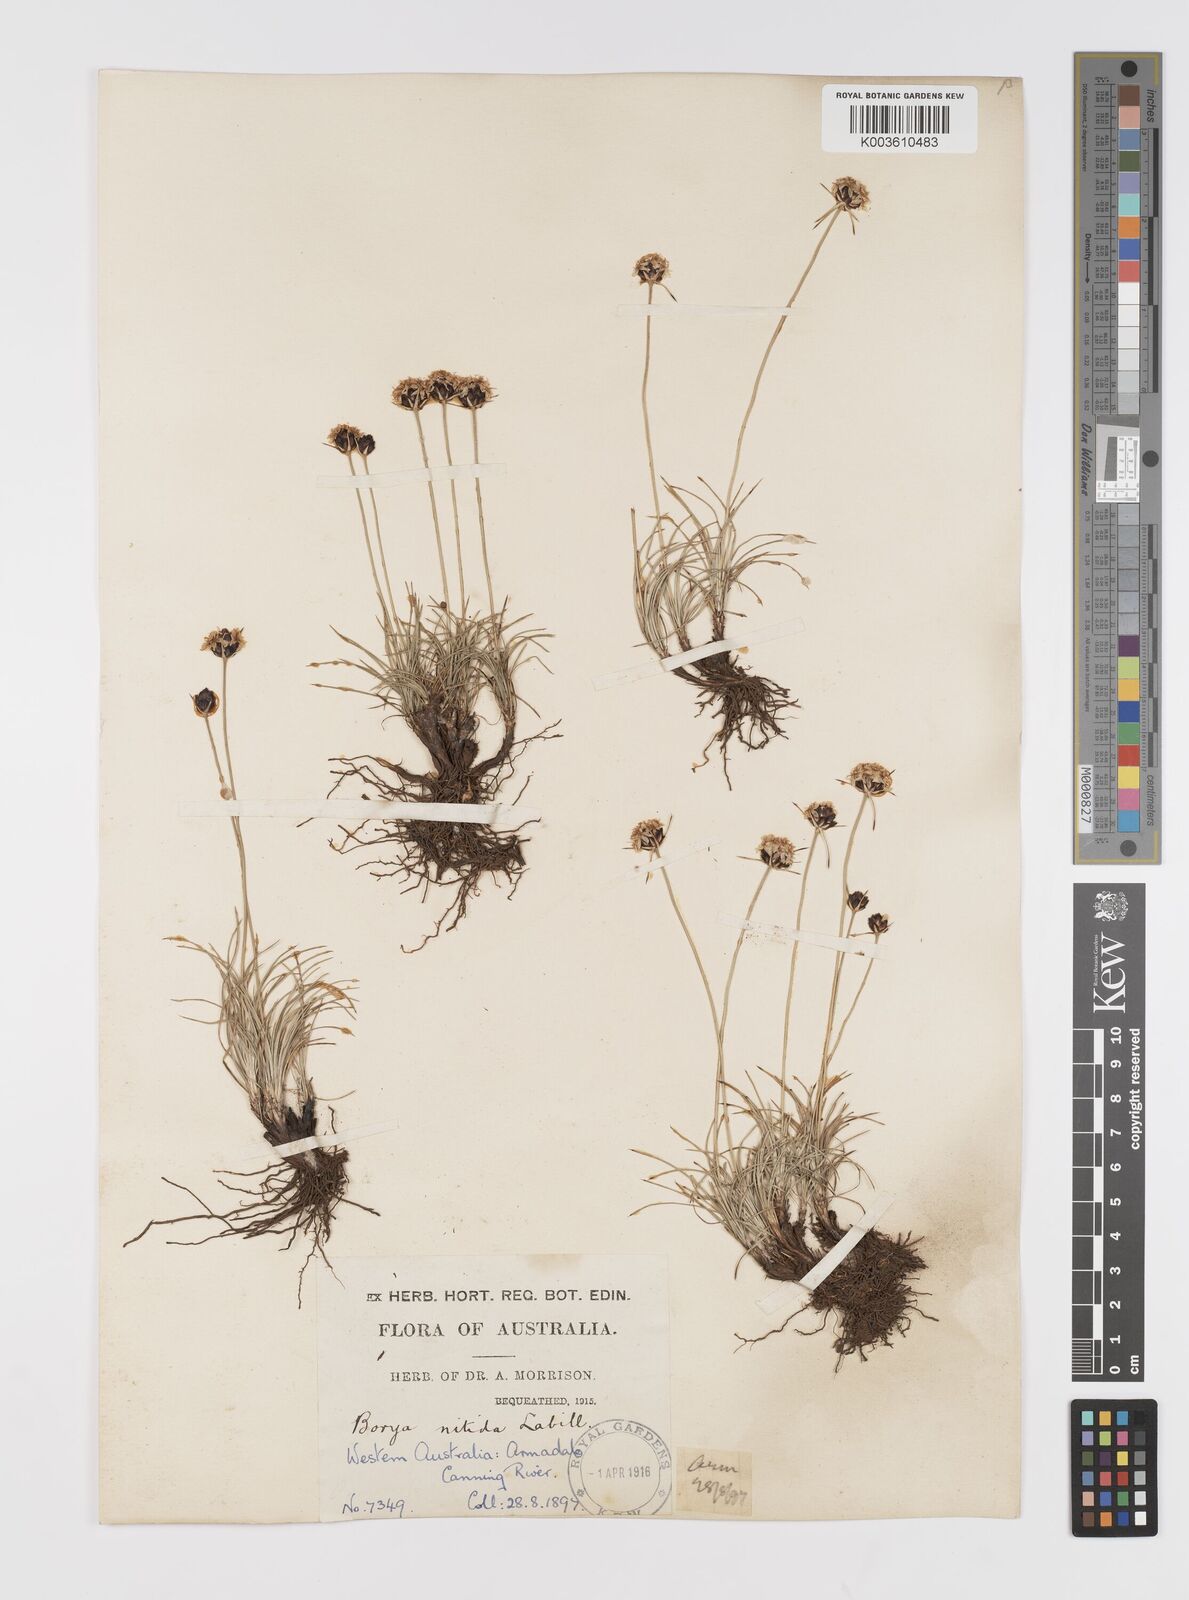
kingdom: Plantae
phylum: Tracheophyta
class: Liliopsida
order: Asparagales
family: Boryaceae
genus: Borya
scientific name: Borya nitida
